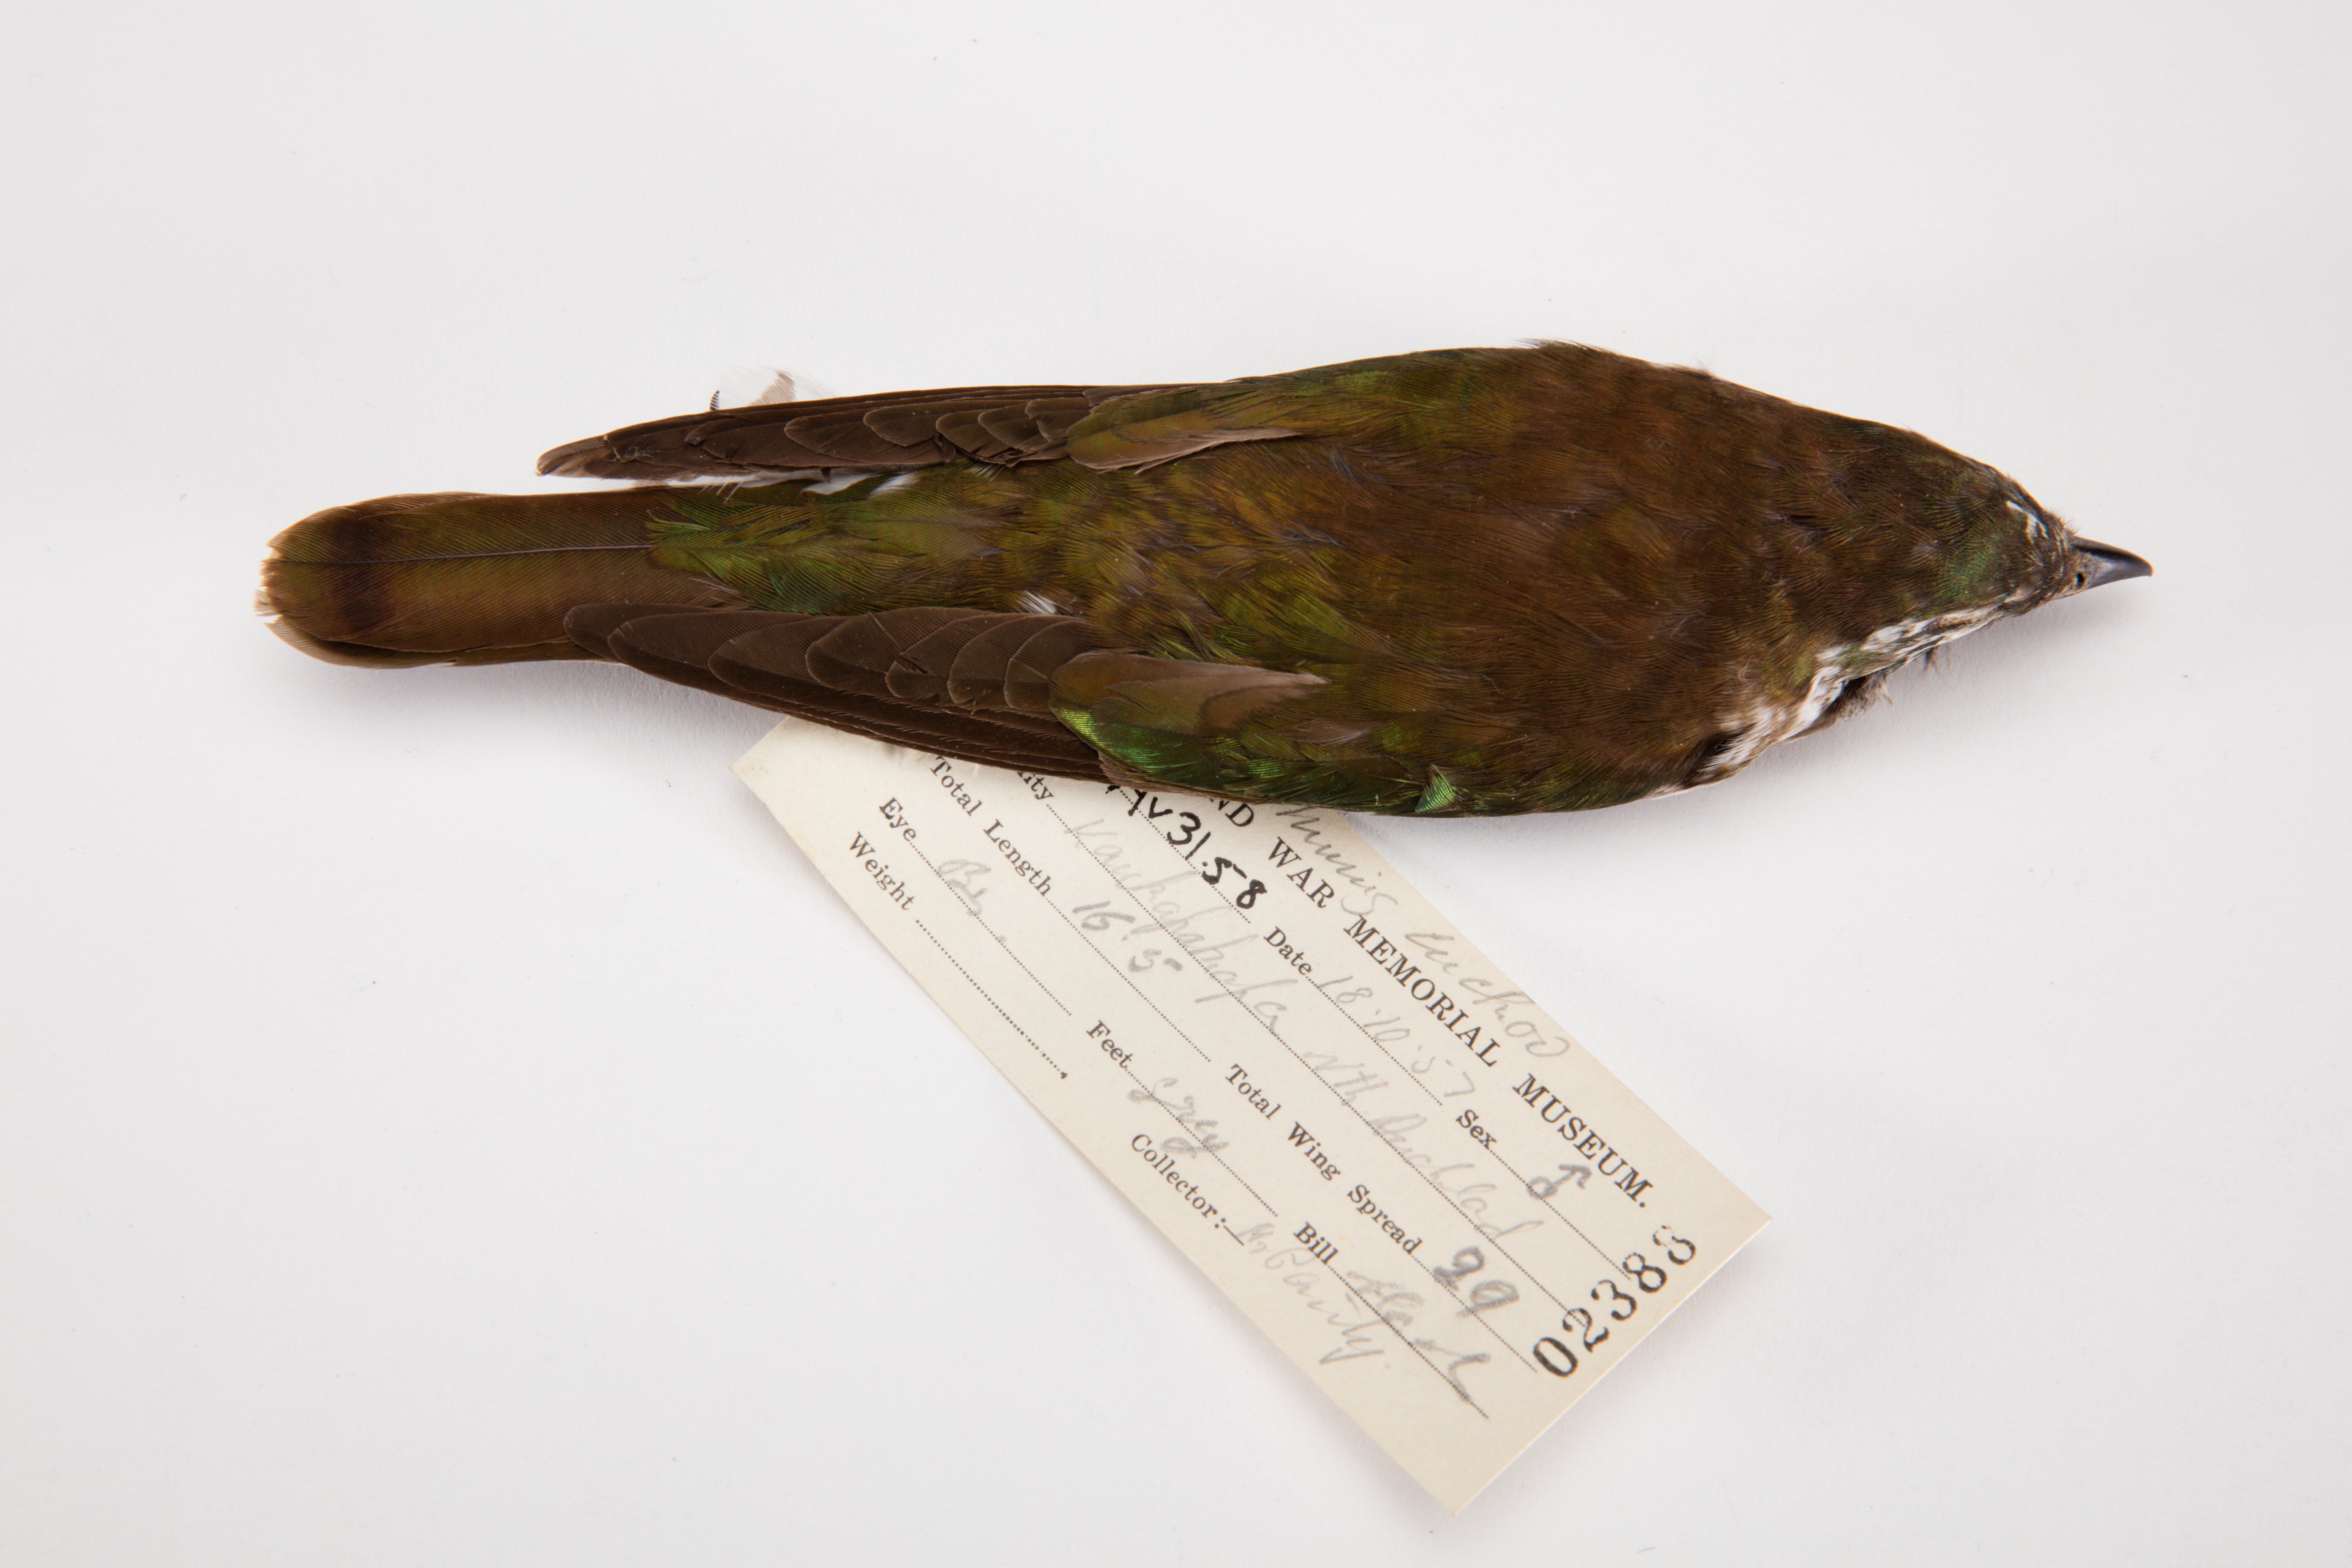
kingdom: Animalia
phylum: Chordata
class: Aves
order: Cuculiformes
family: Cuculidae
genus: Chrysococcyx
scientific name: Chrysococcyx lucidus
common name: Shining bronze cuckoo
